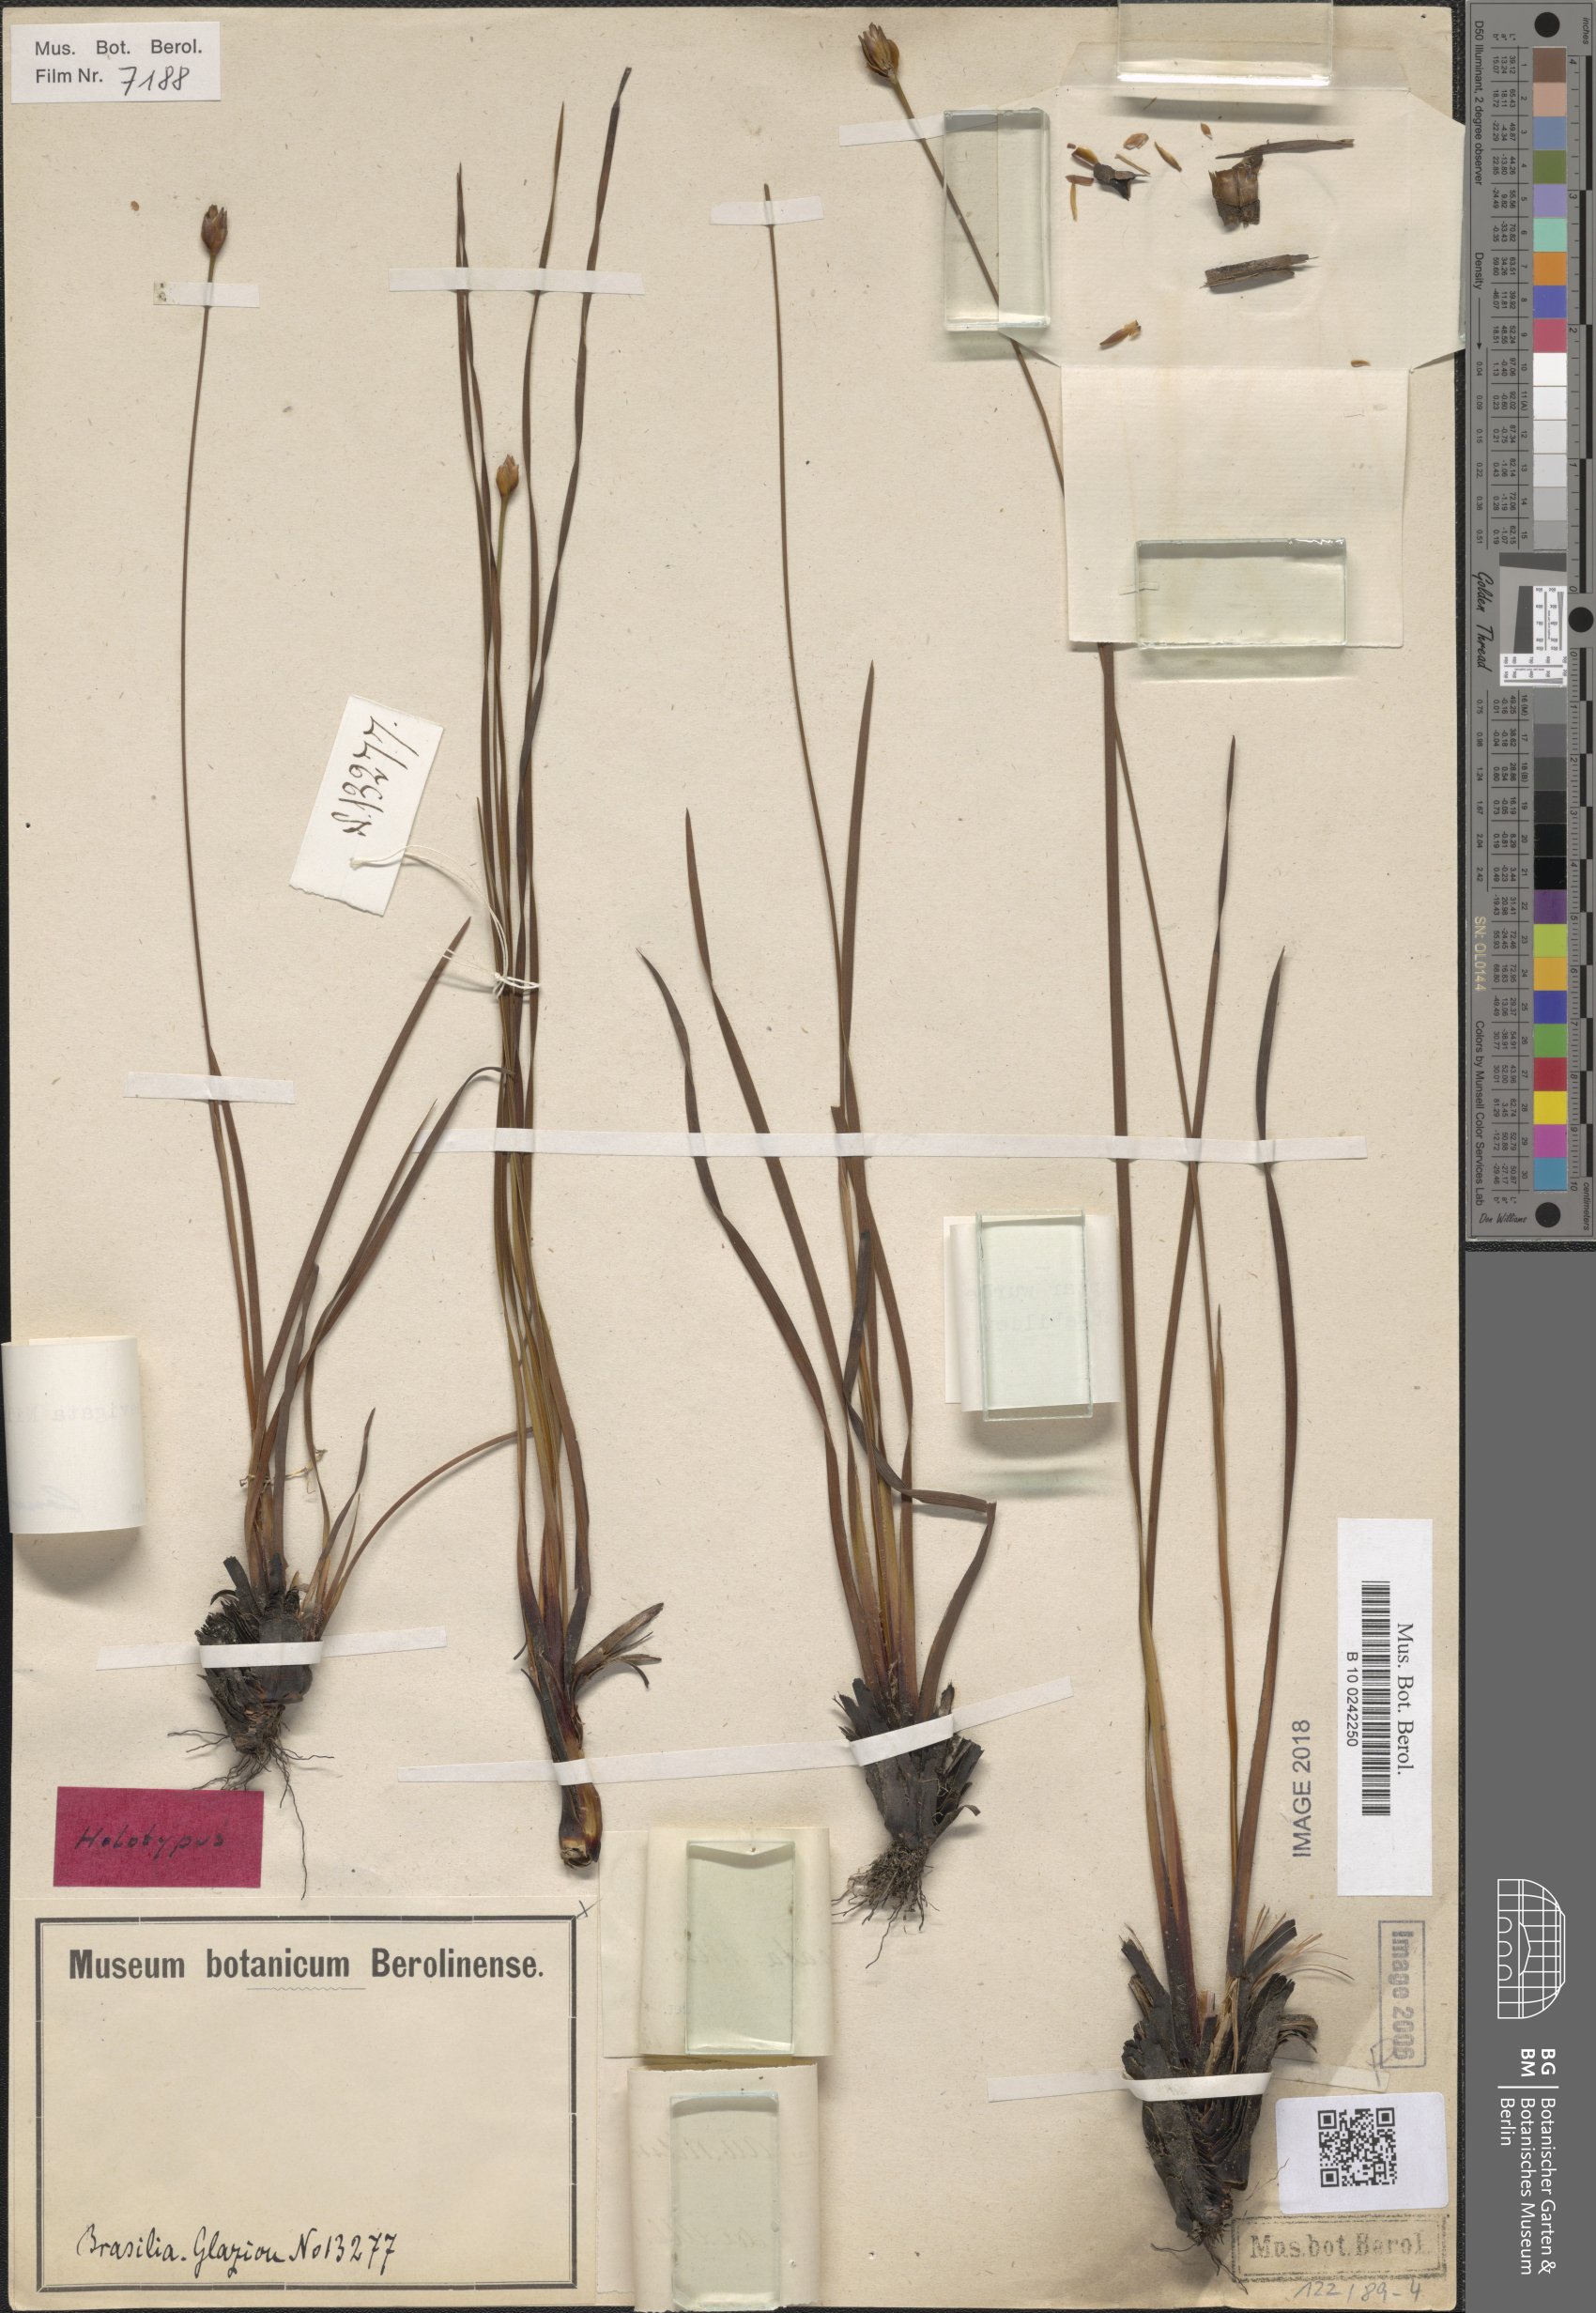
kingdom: Plantae
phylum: Tracheophyta
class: Liliopsida
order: Poales
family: Xyridaceae
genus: Xyris
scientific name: Xyris laevigata
